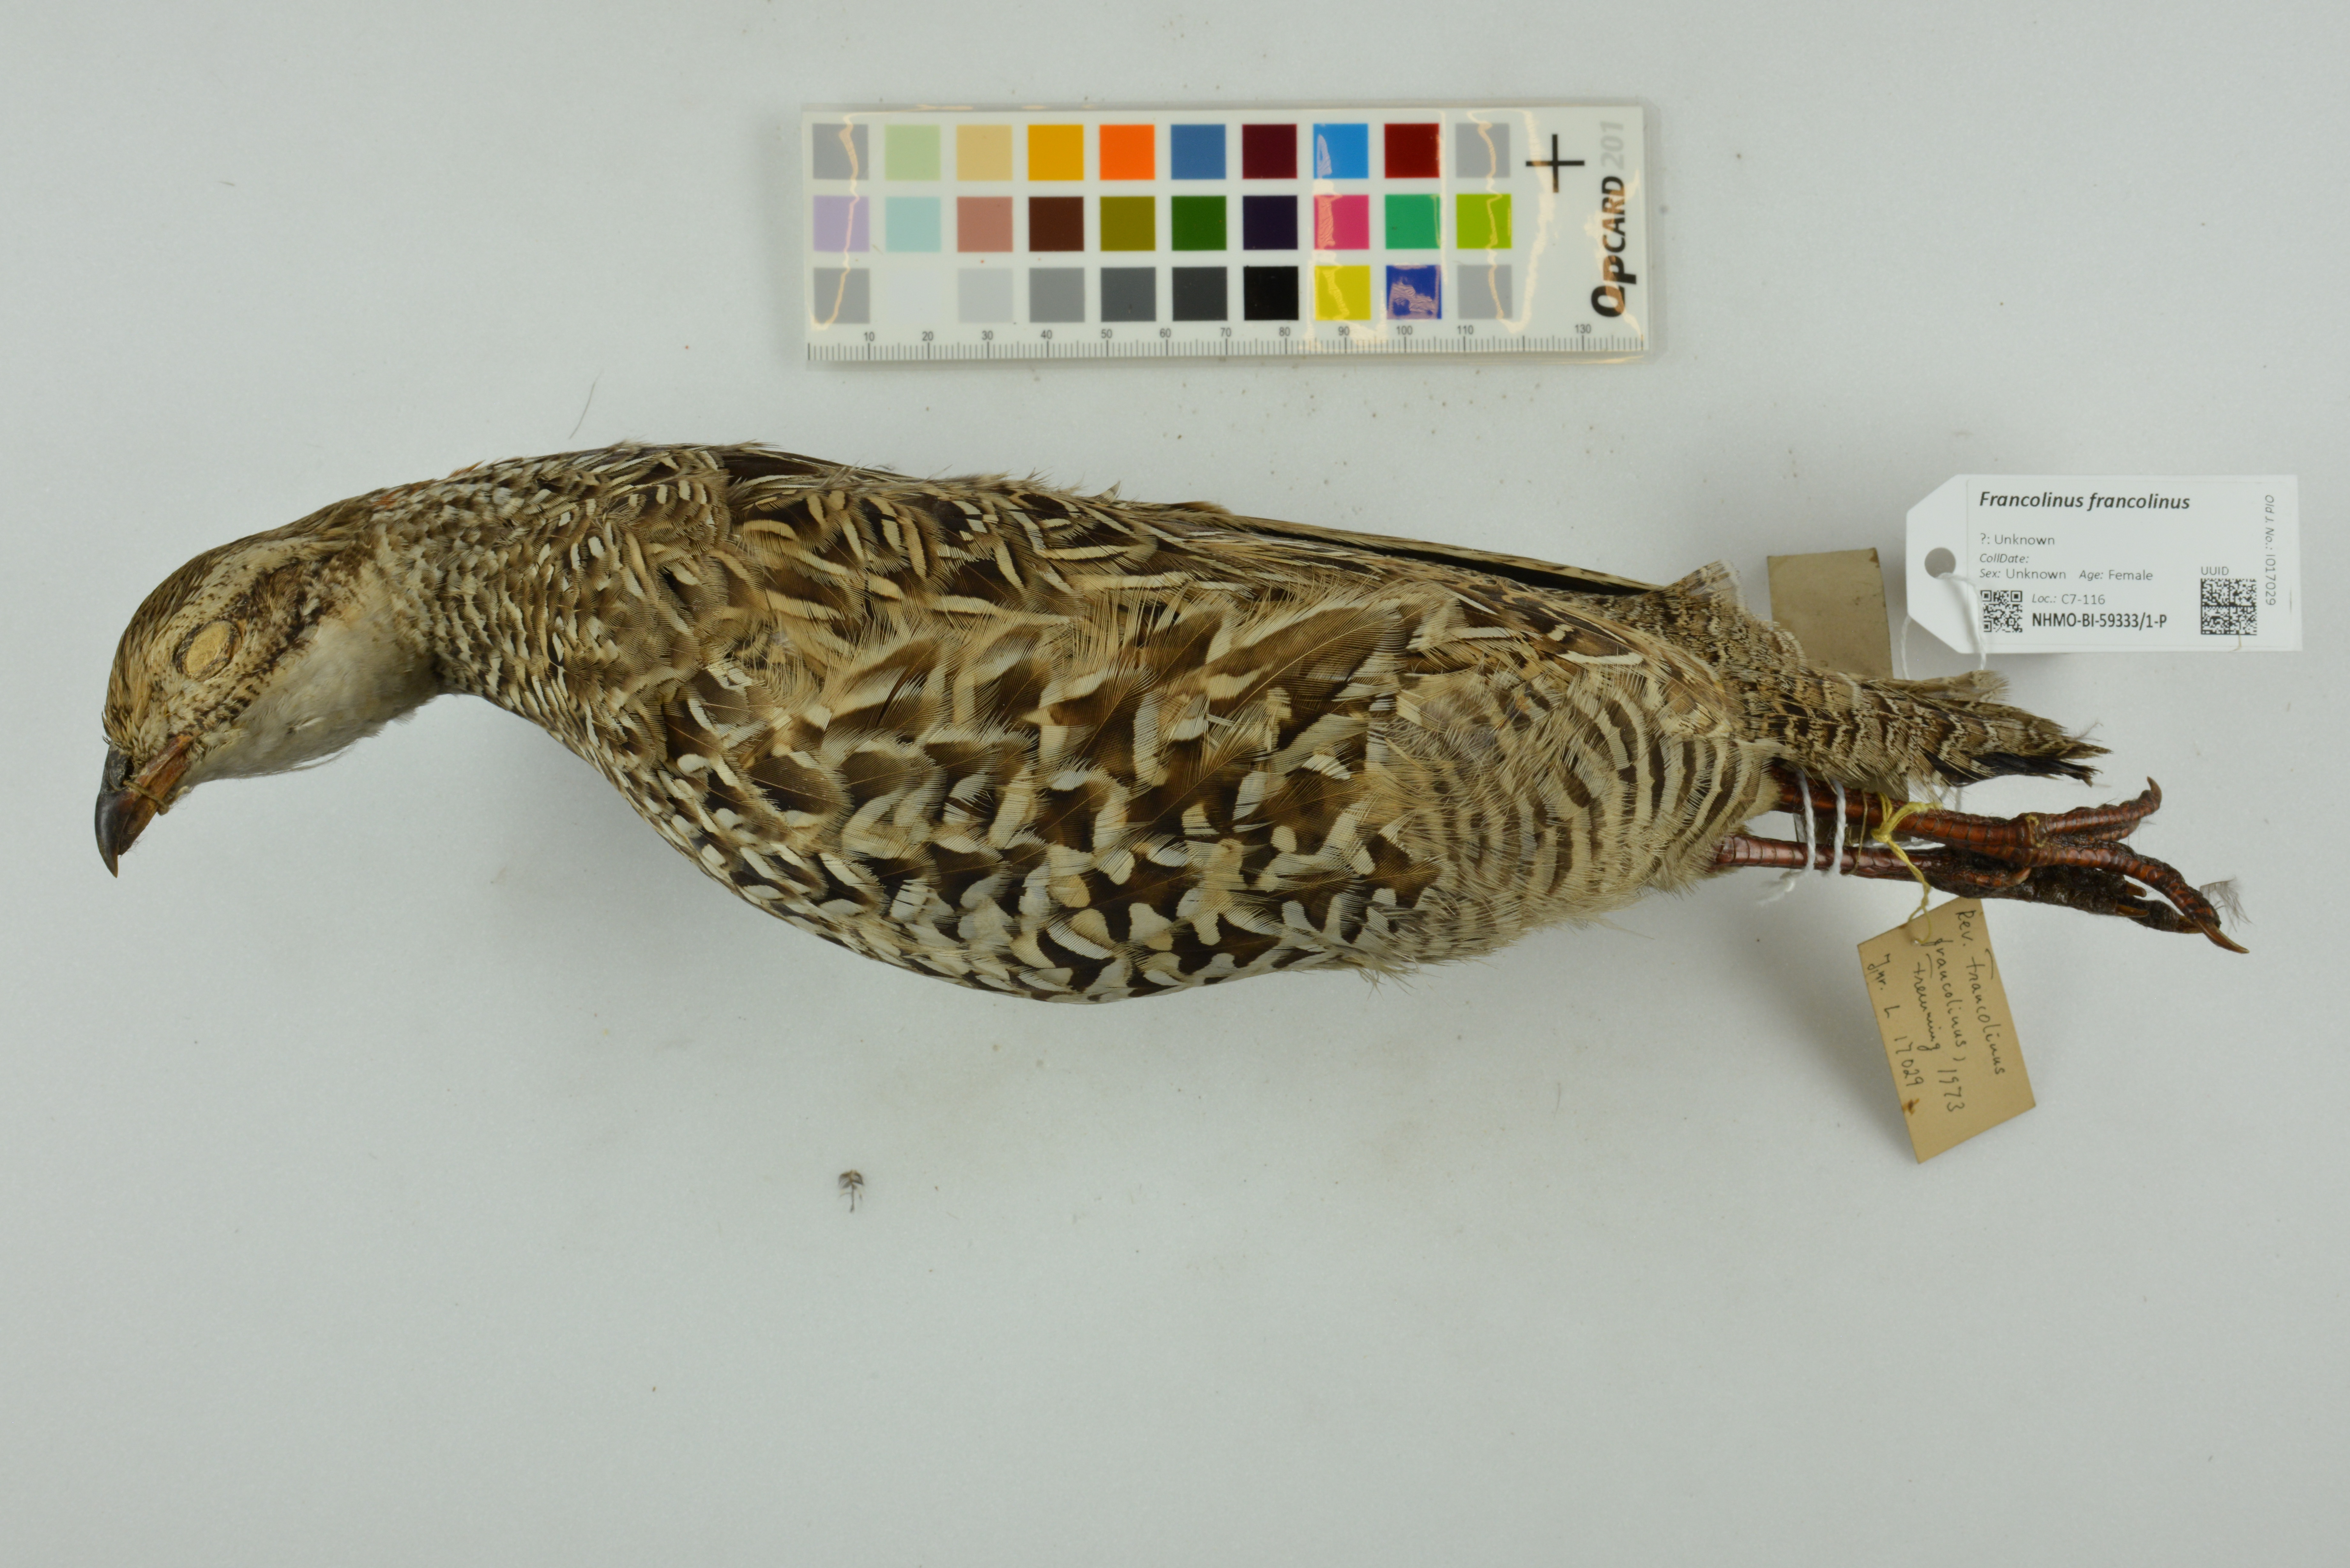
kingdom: Animalia
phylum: Chordata
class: Aves
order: Galliformes
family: Phasianidae
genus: Francolinus
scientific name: Francolinus francolinus
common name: Black francolin
